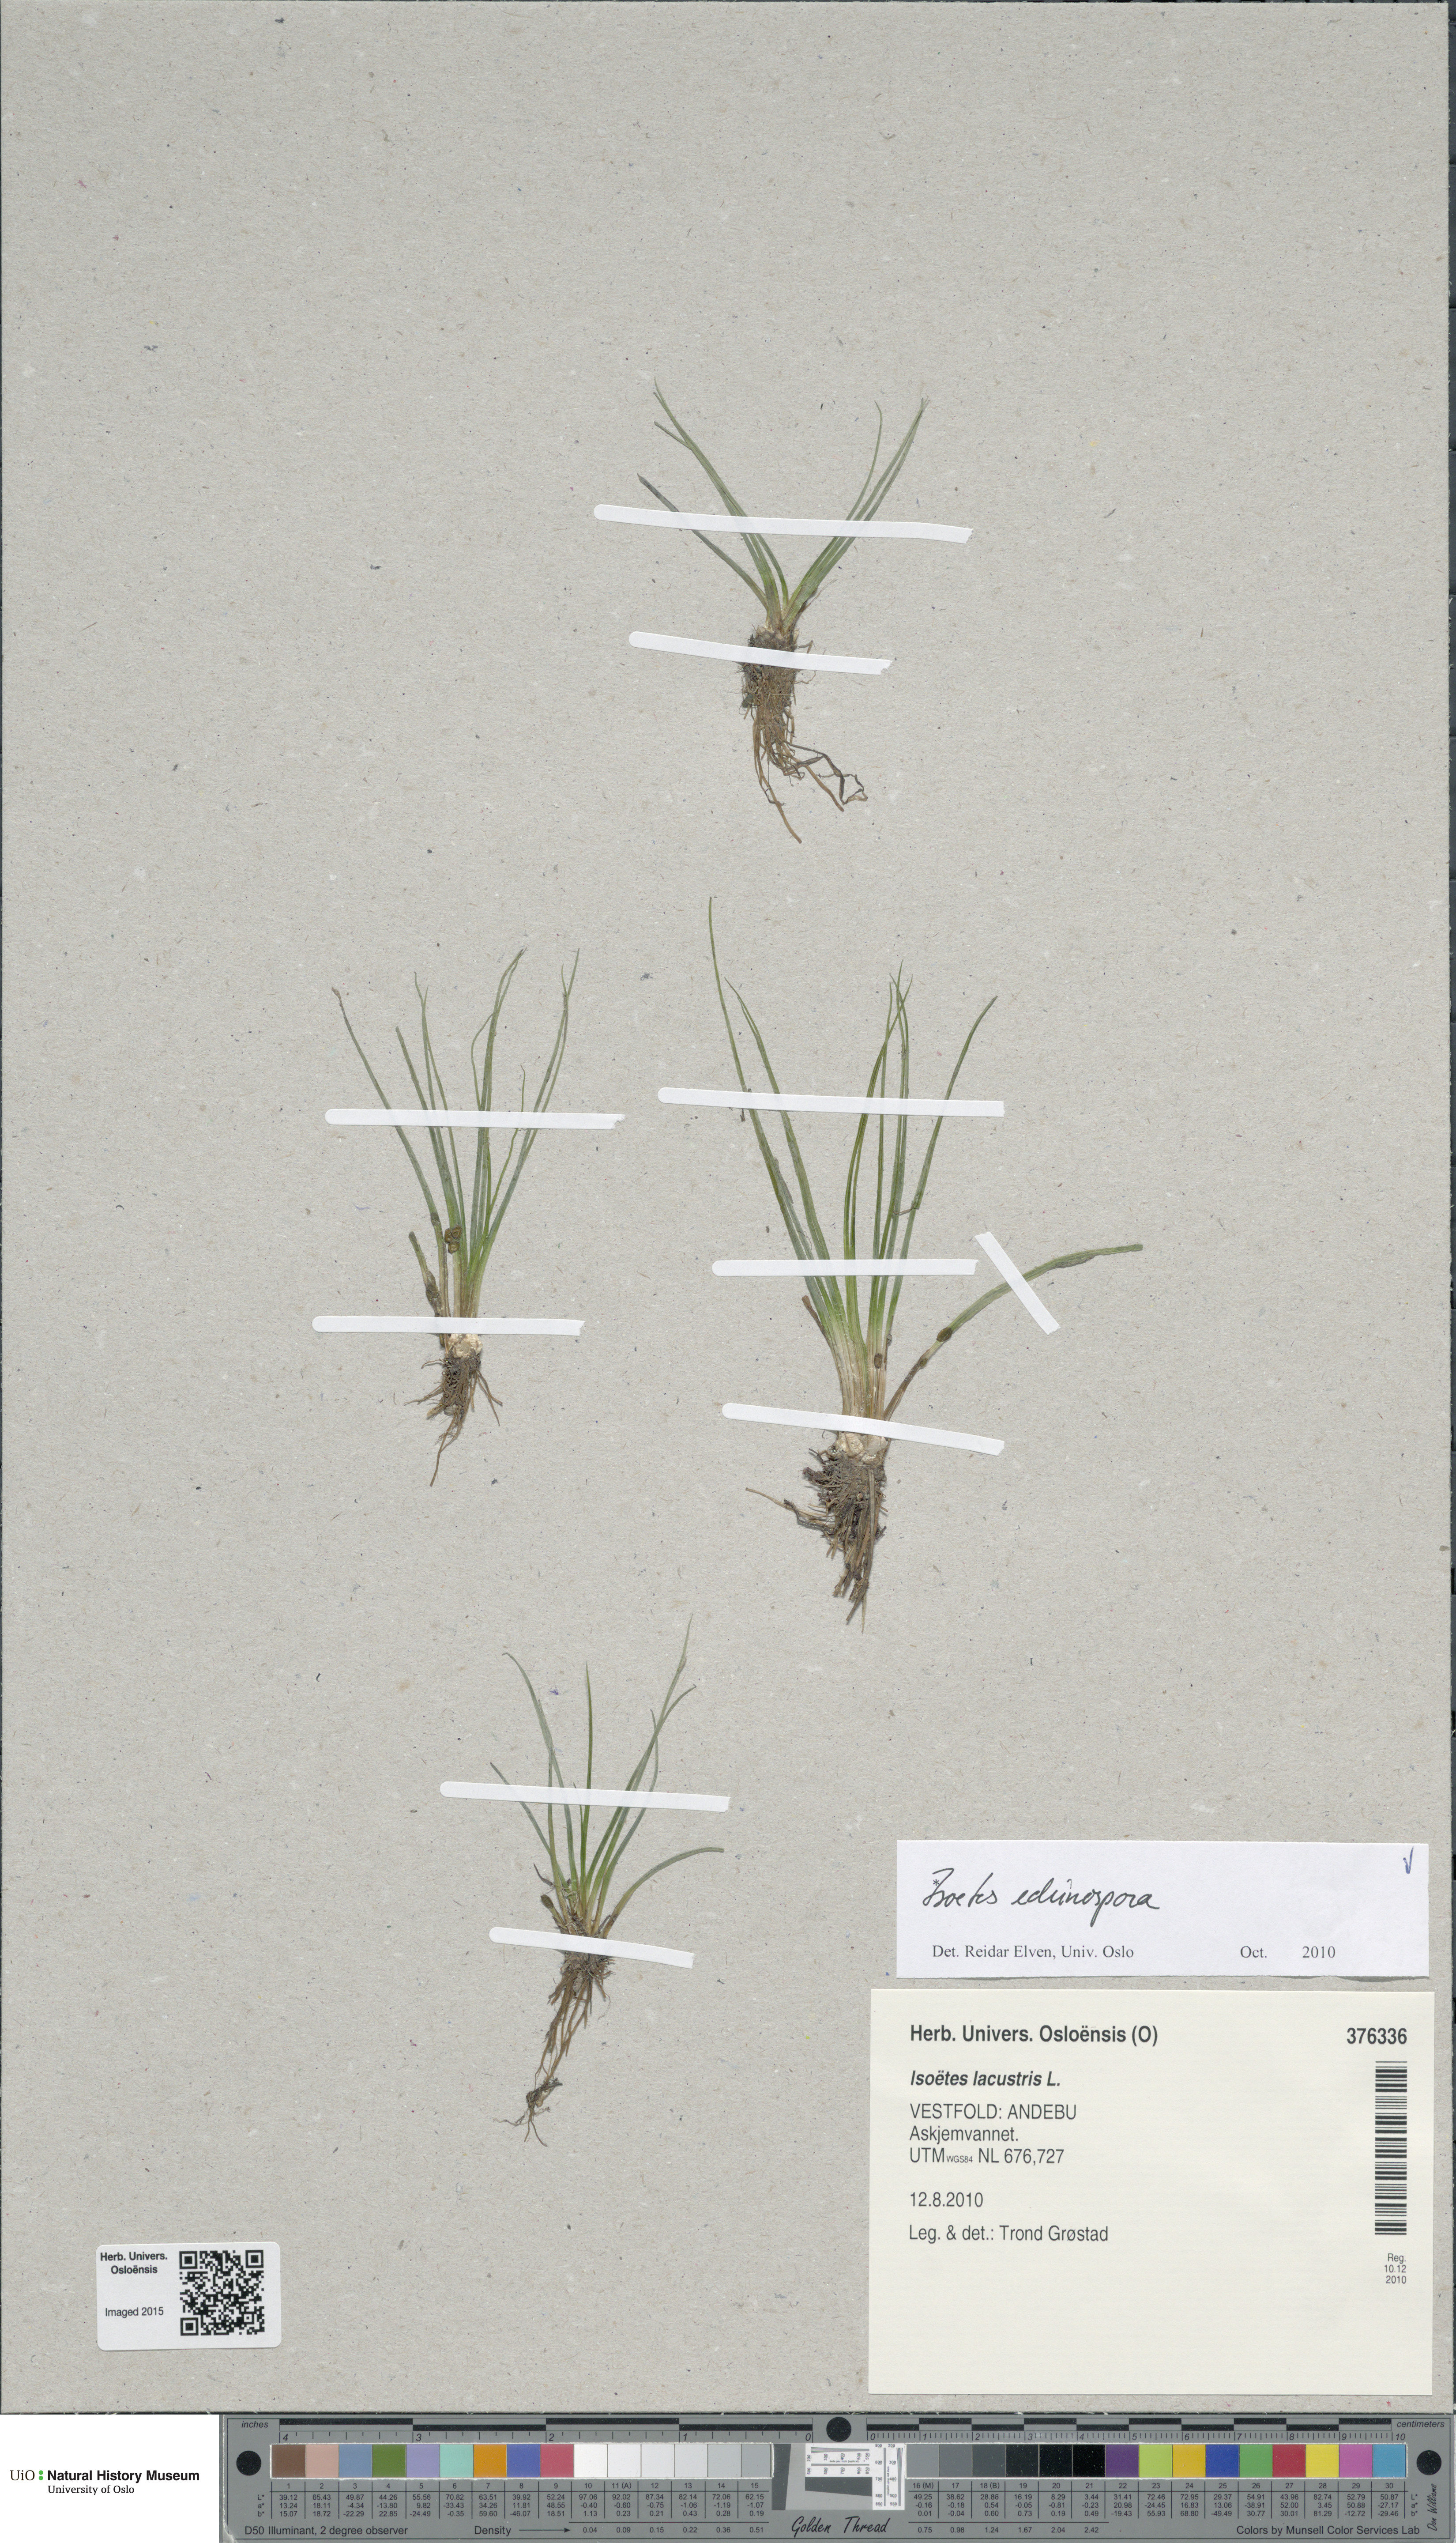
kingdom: Plantae
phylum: Tracheophyta
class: Lycopodiopsida
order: Isoetales
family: Isoetaceae
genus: Isoetes
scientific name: Isoetes echinospora
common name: Spring quillwort
